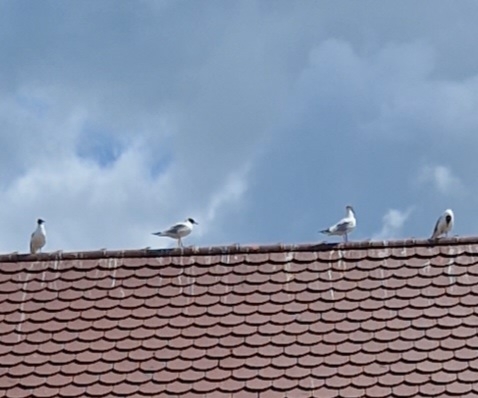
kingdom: Animalia
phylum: Chordata
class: Aves
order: Charadriiformes
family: Laridae
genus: Chroicocephalus
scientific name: Chroicocephalus ridibundus
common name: Hættemåge
